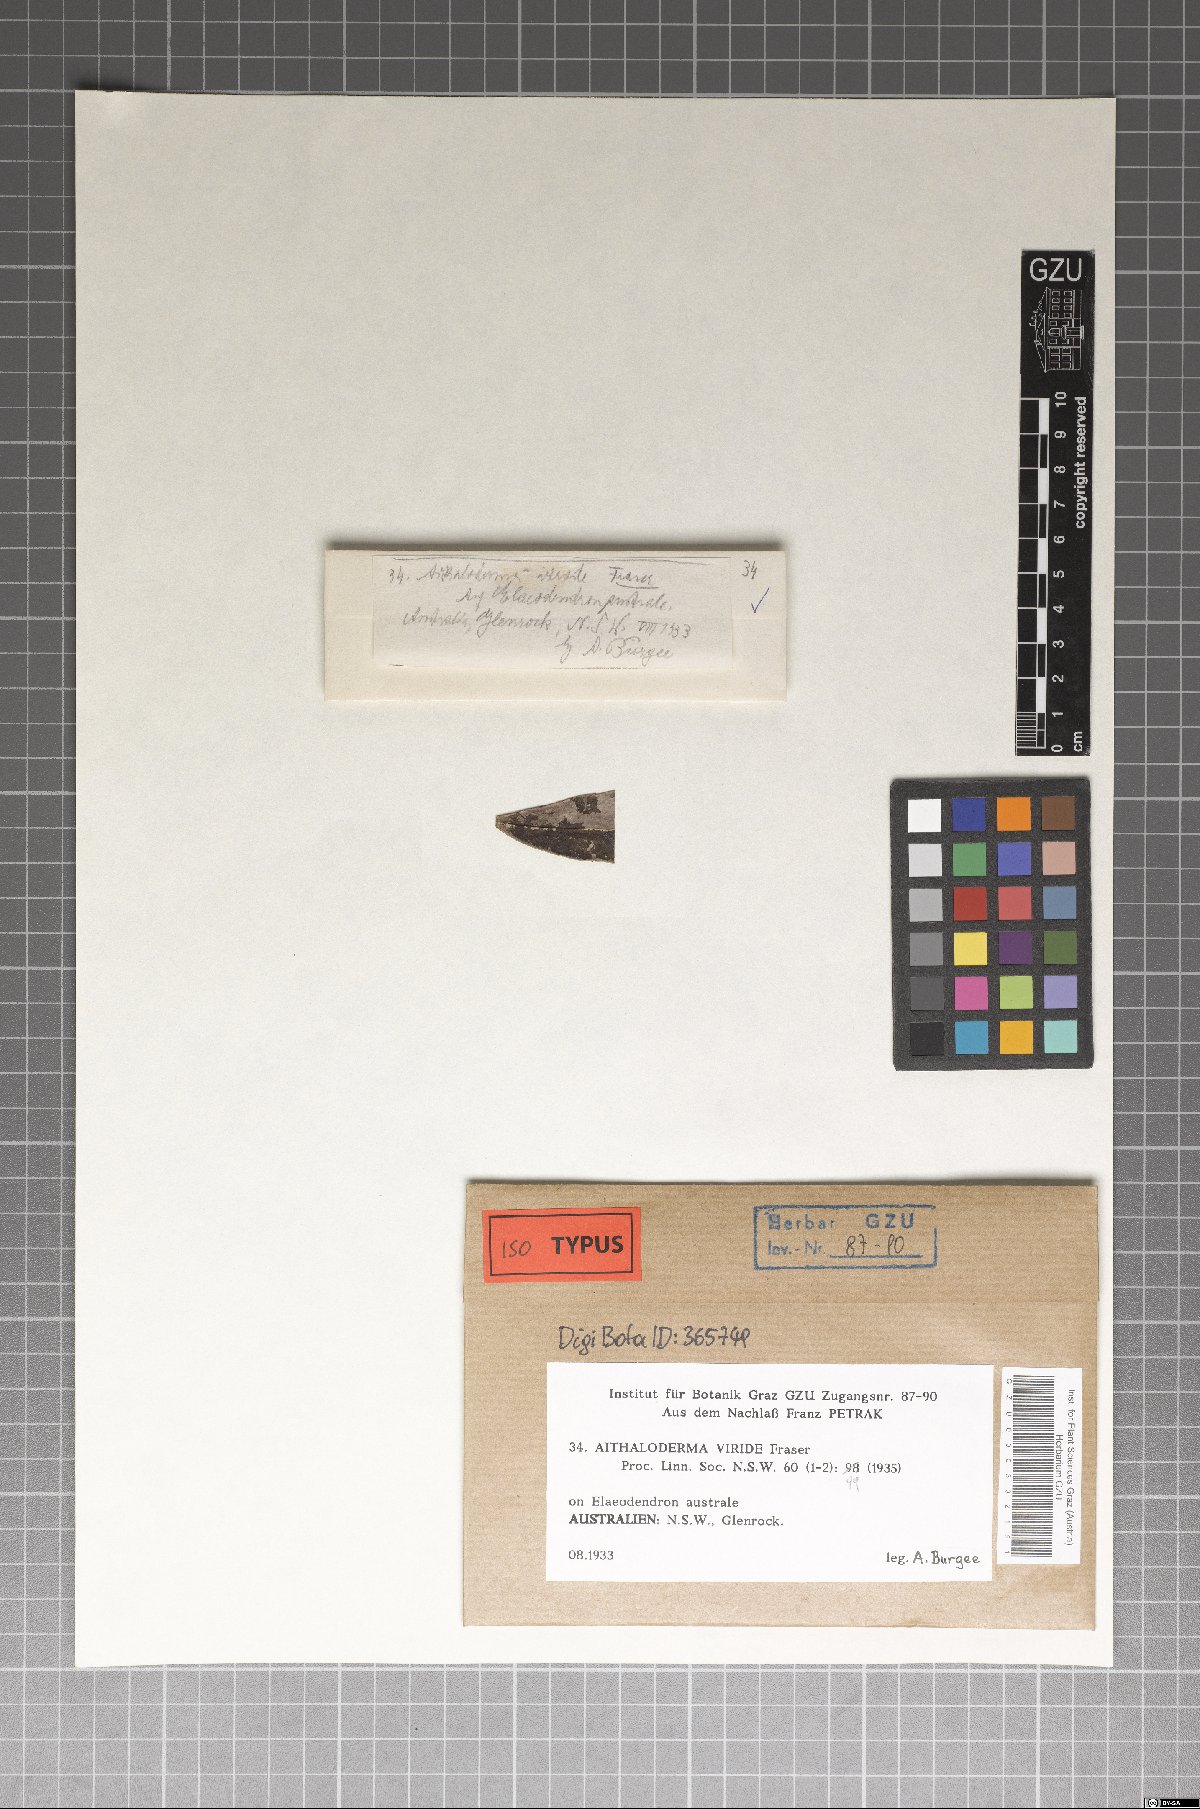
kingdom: Fungi
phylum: Ascomycota
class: Dothideomycetes
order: Capnodiales
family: Capnodiaceae
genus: Aithaloderma
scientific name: Aithaloderma viride
